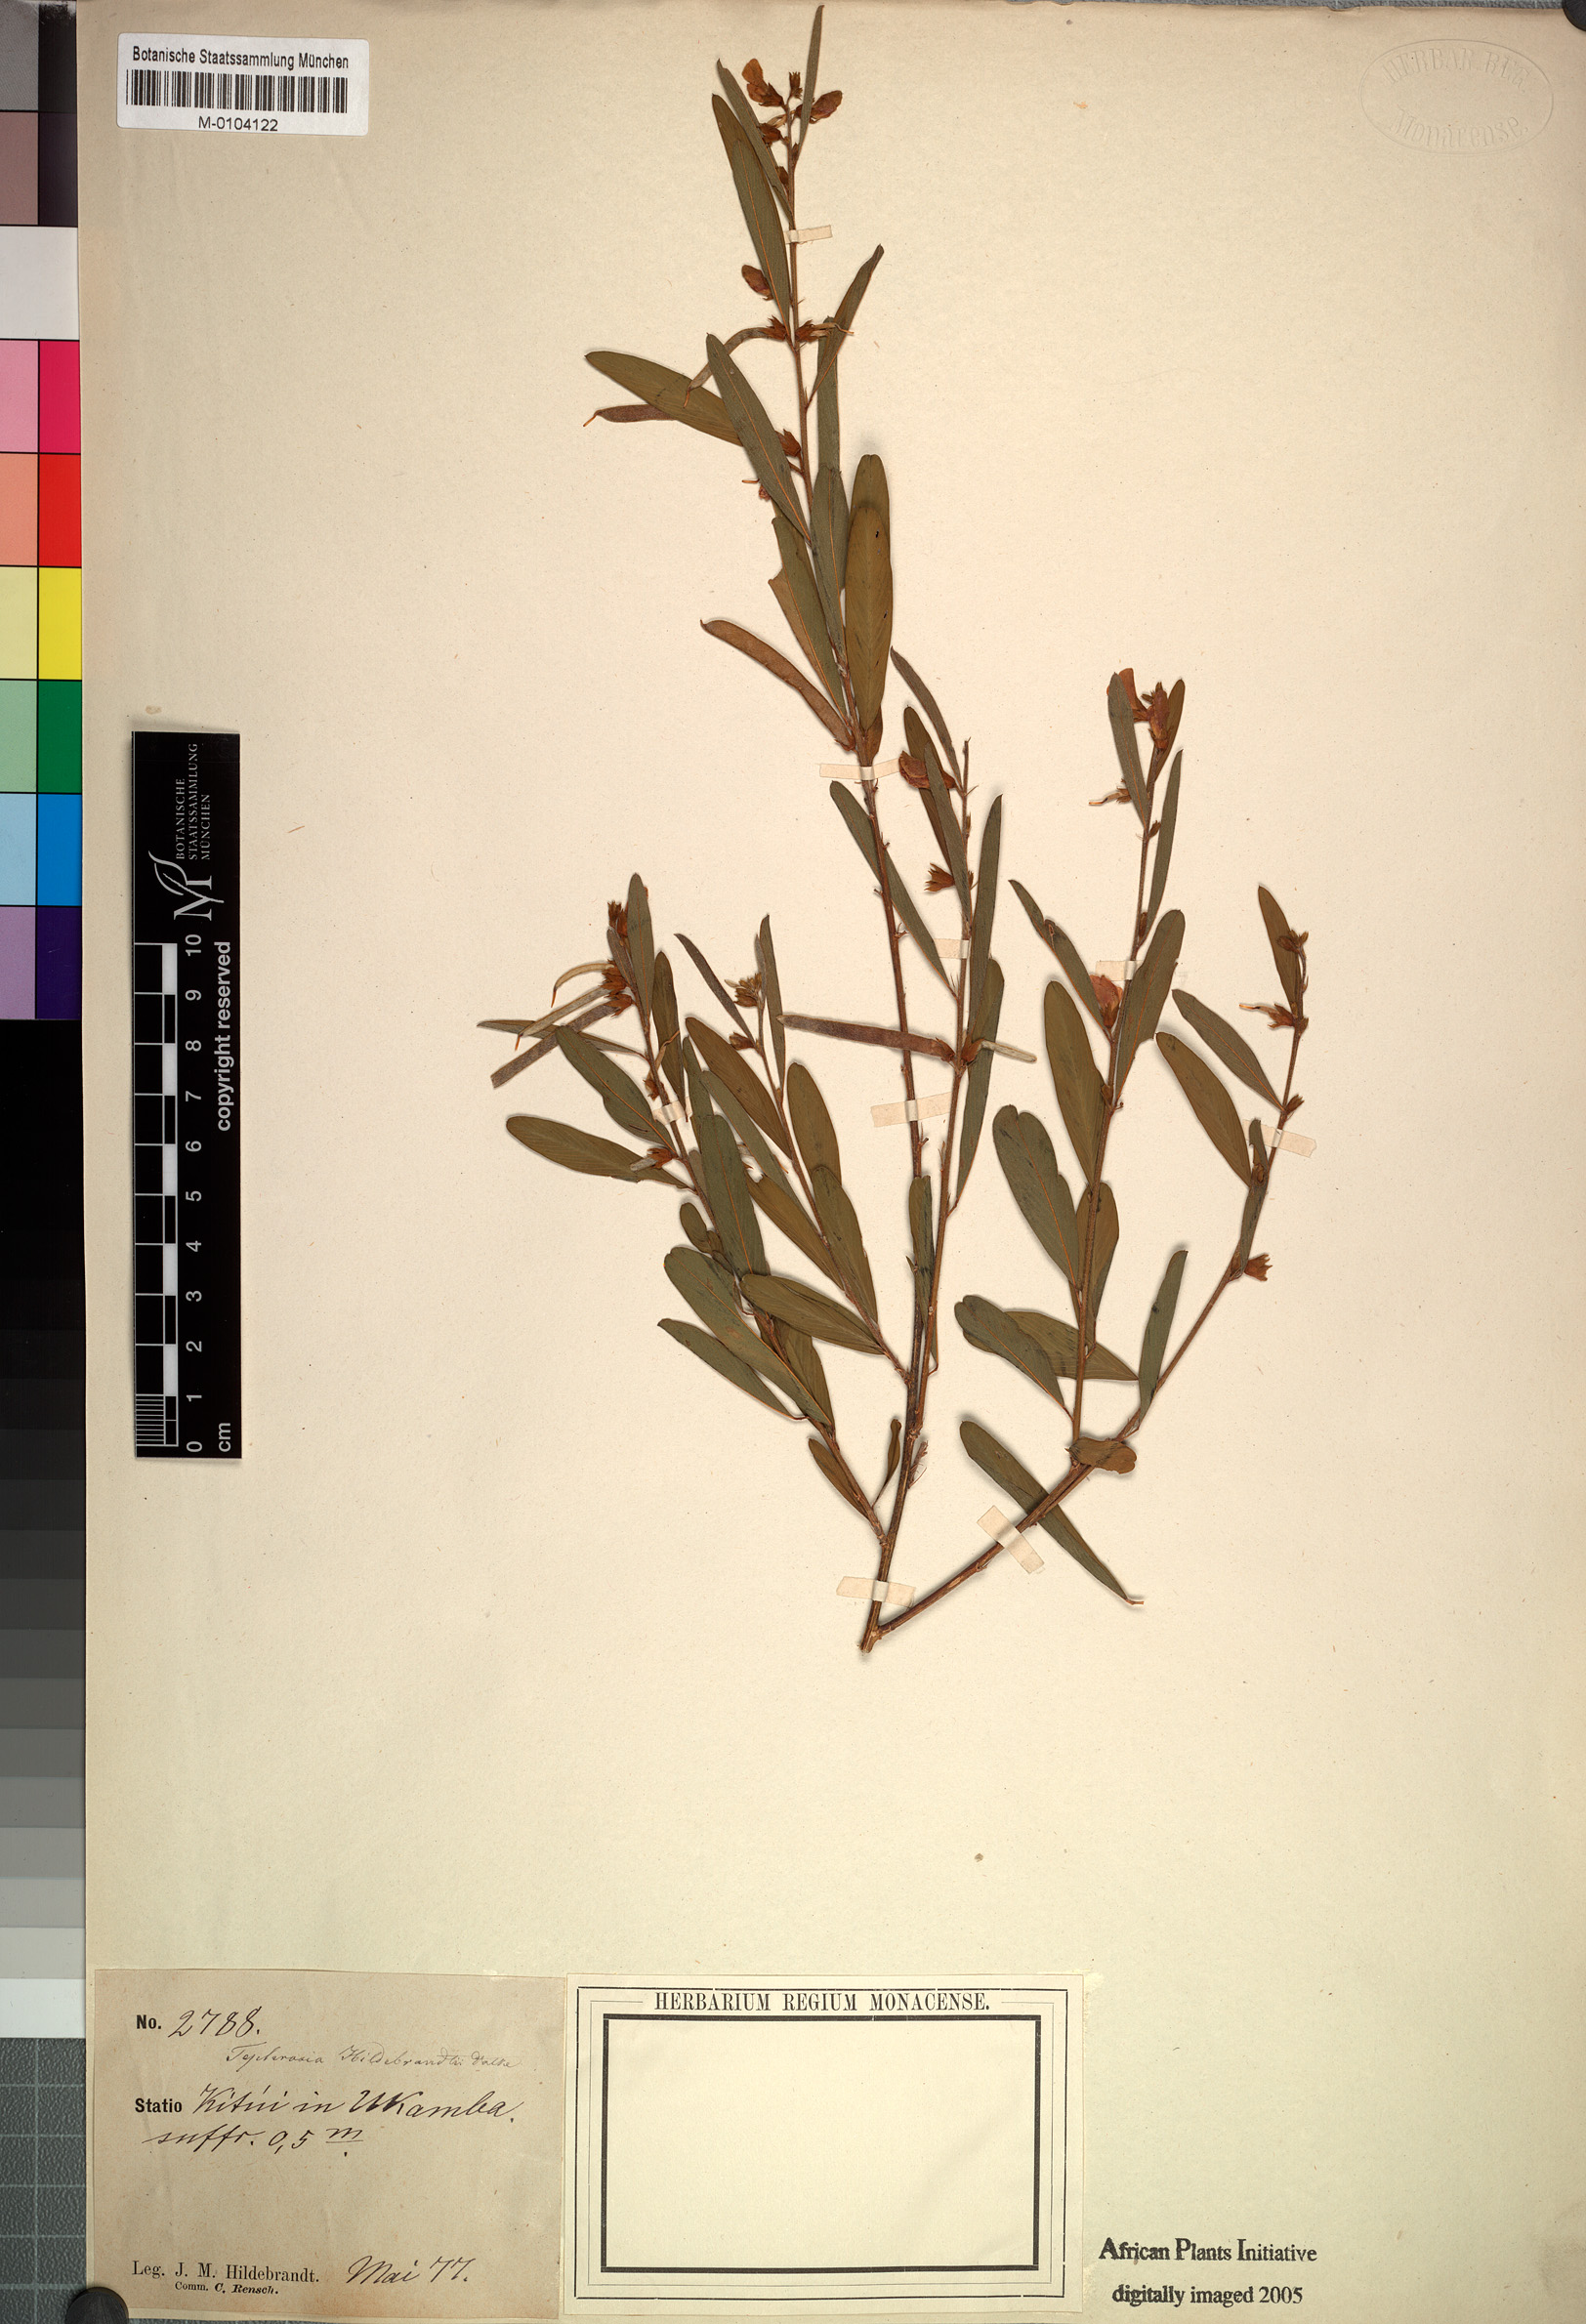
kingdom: Plantae
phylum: Tracheophyta
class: Magnoliopsida
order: Fabales
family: Fabaceae
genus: Tephrosia
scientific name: Tephrosia hildebrandtii
